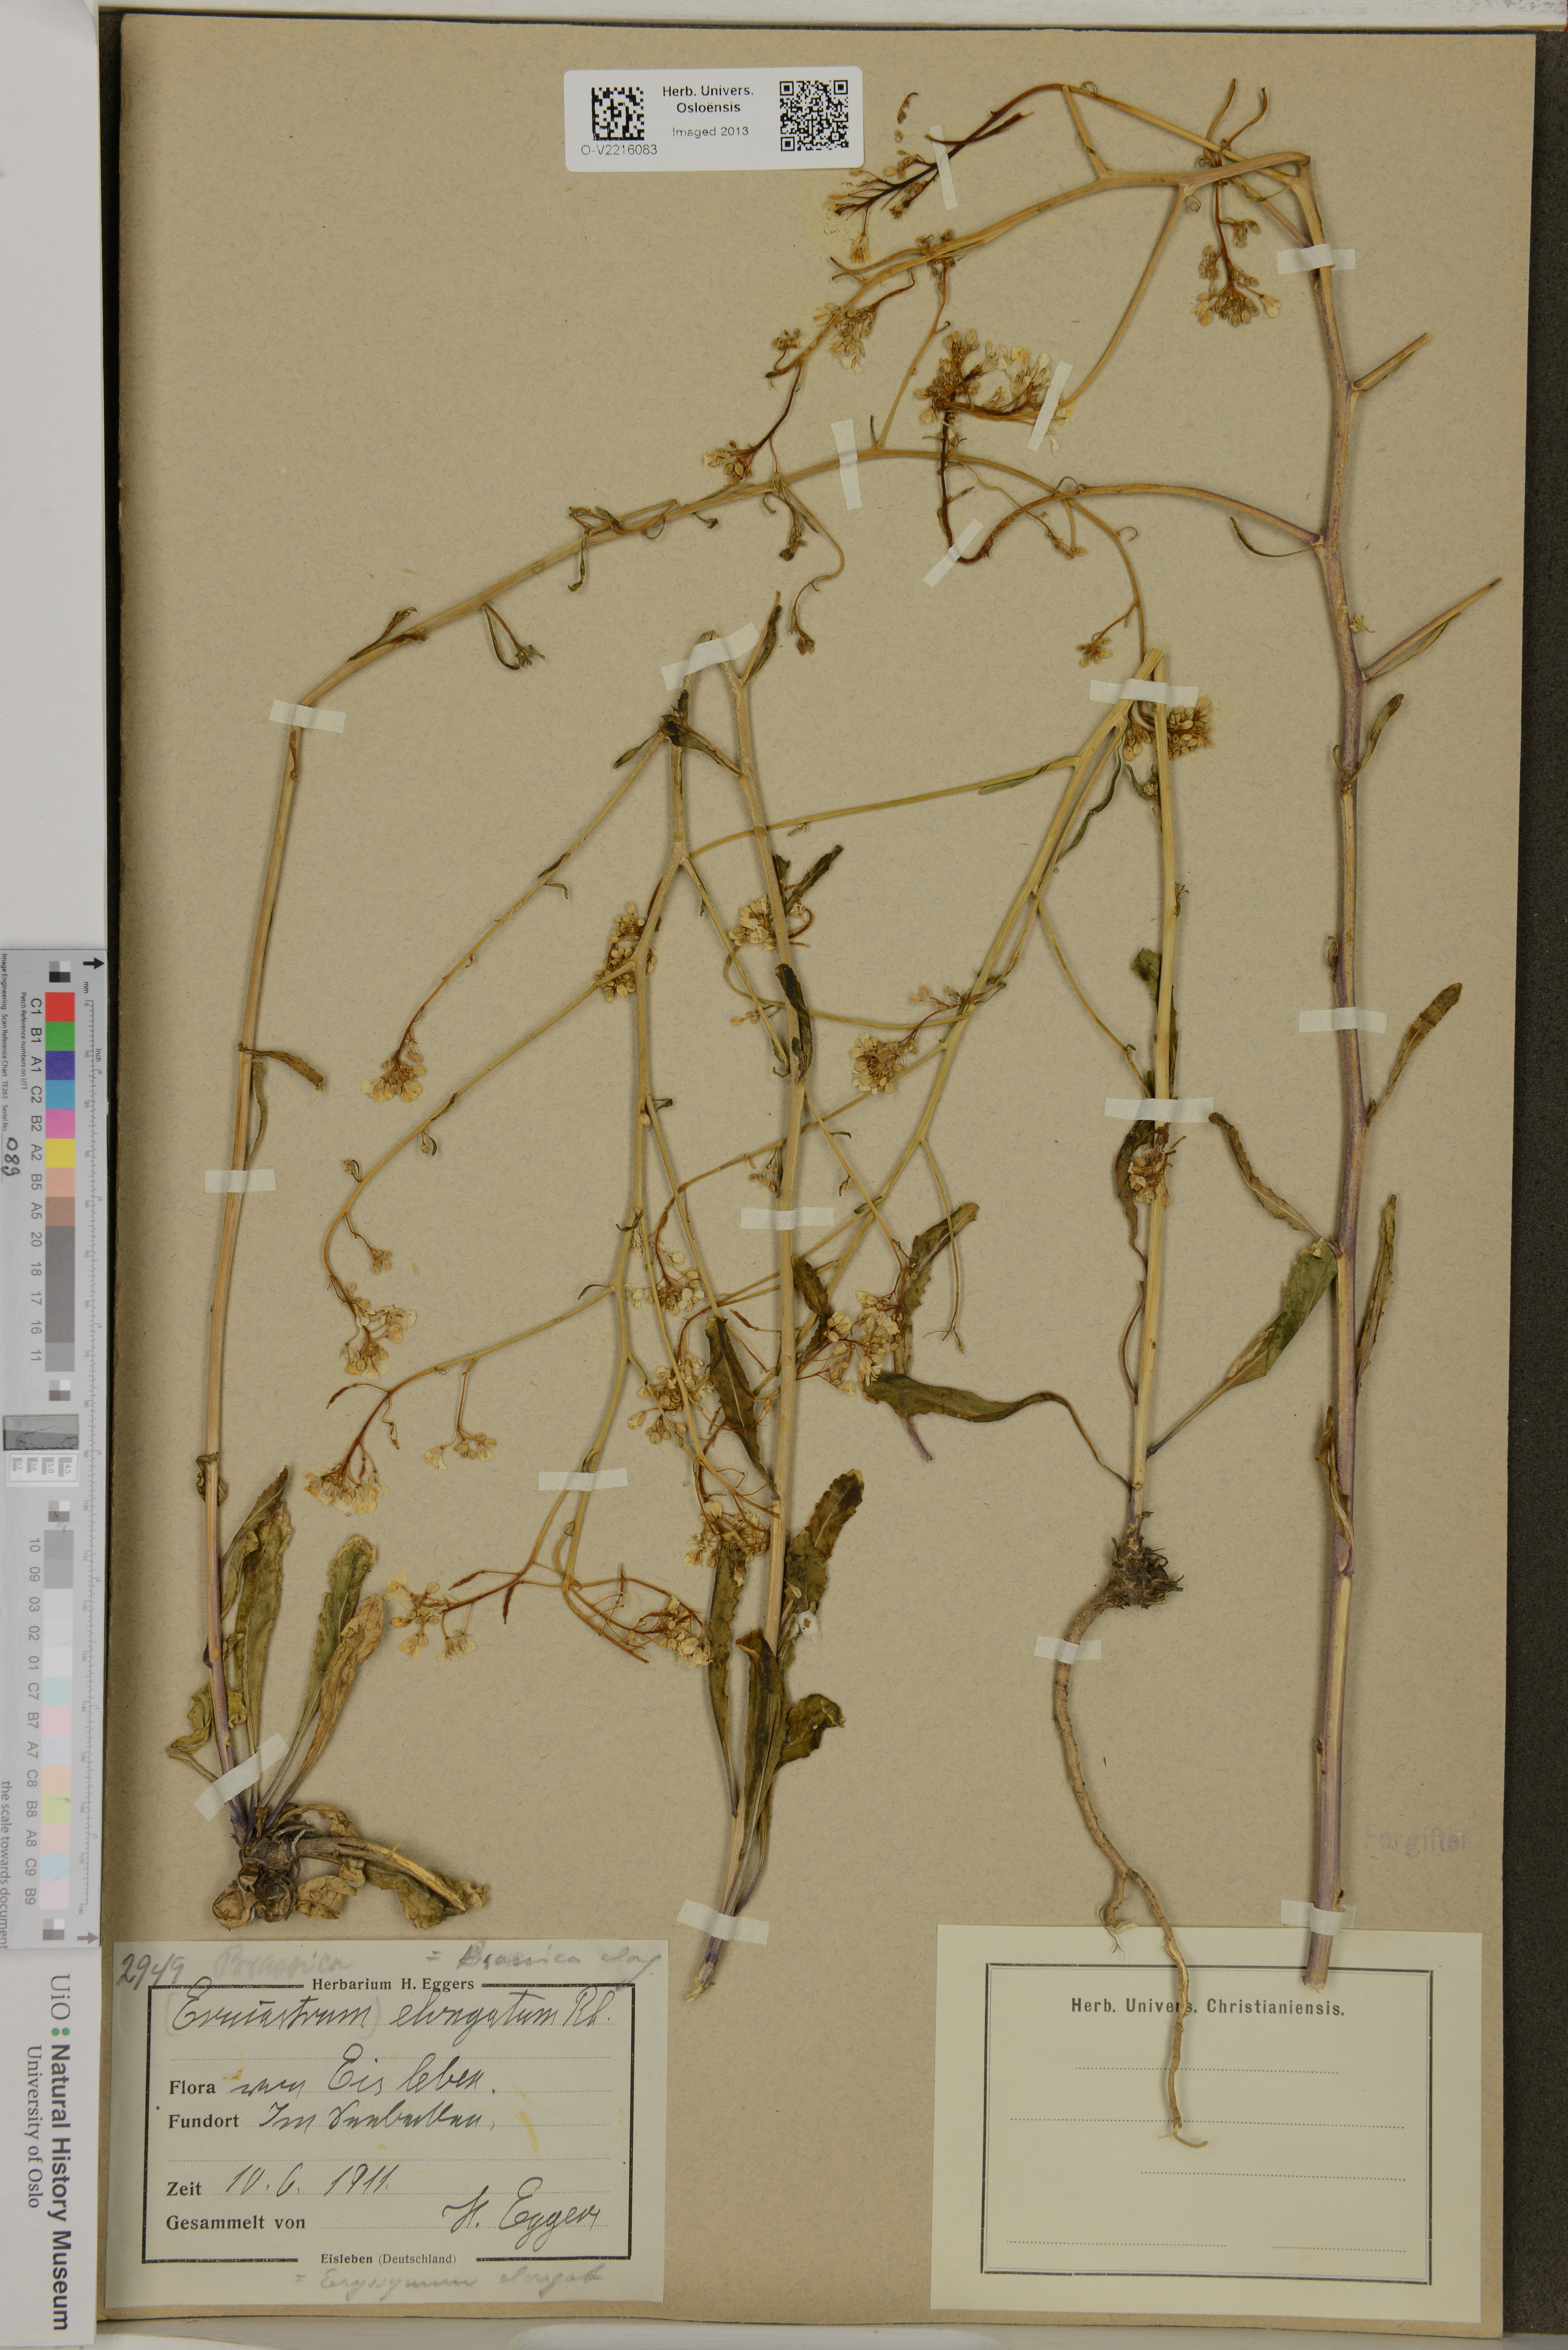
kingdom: Plantae
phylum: Tracheophyta
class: Magnoliopsida
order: Brassicales
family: Brassicaceae
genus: Brassica
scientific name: Brassica elongata
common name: Long-stalked rape
